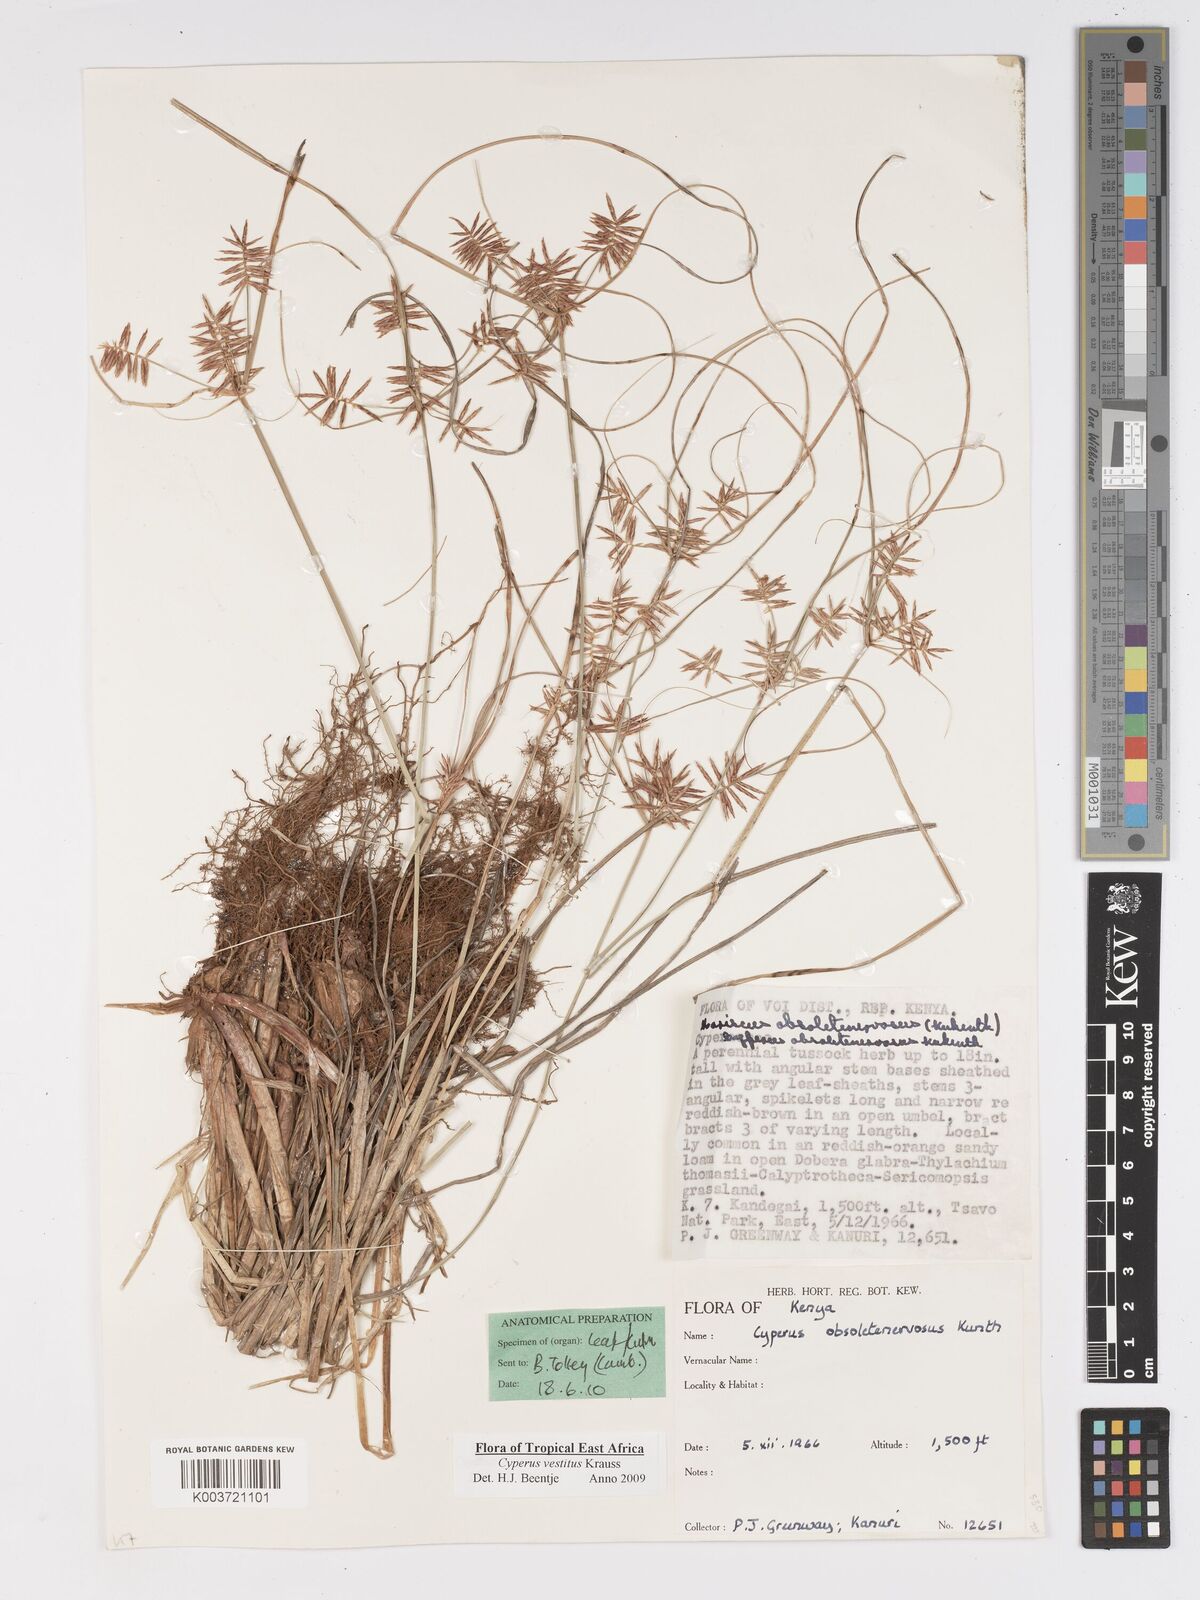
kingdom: Plantae
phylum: Tracheophyta
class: Liliopsida
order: Poales
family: Cyperaceae
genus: Cyperus
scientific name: Cyperus vestitus
